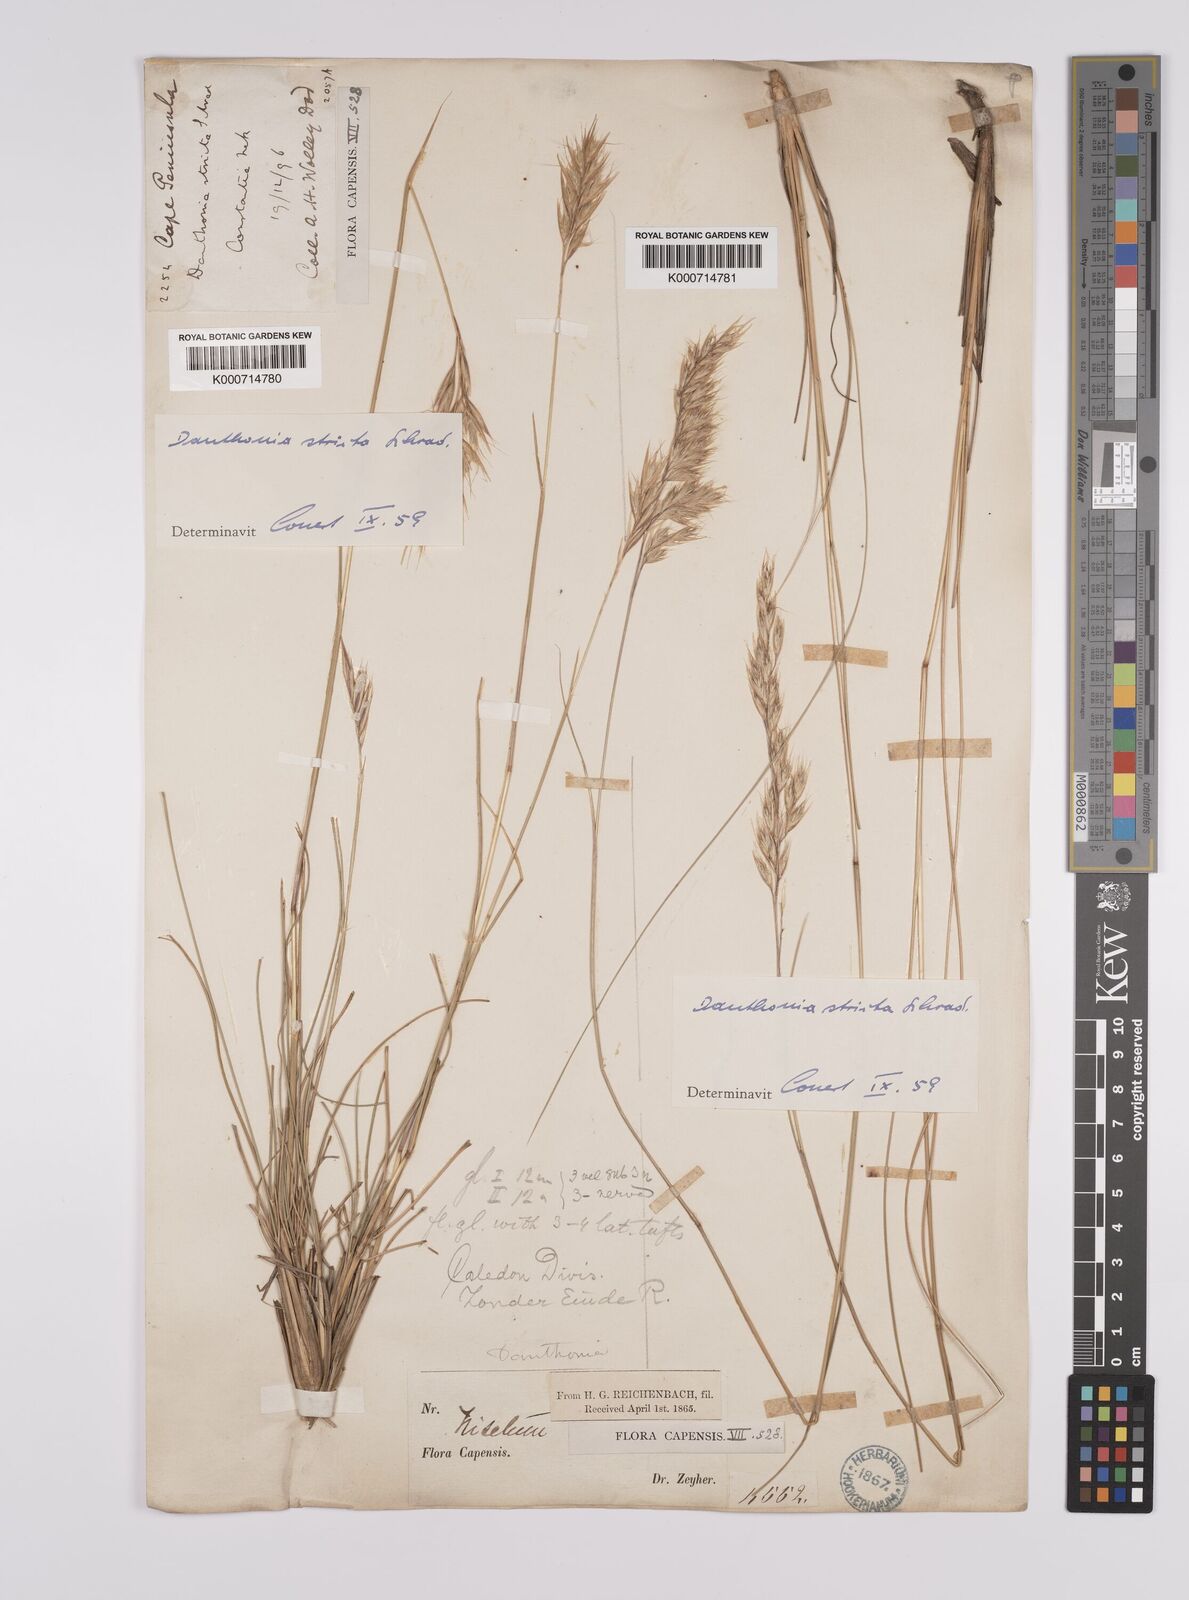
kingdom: Plantae
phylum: Tracheophyta
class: Liliopsida
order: Poales
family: Poaceae
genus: Rytidosperma
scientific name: Rytidosperma
